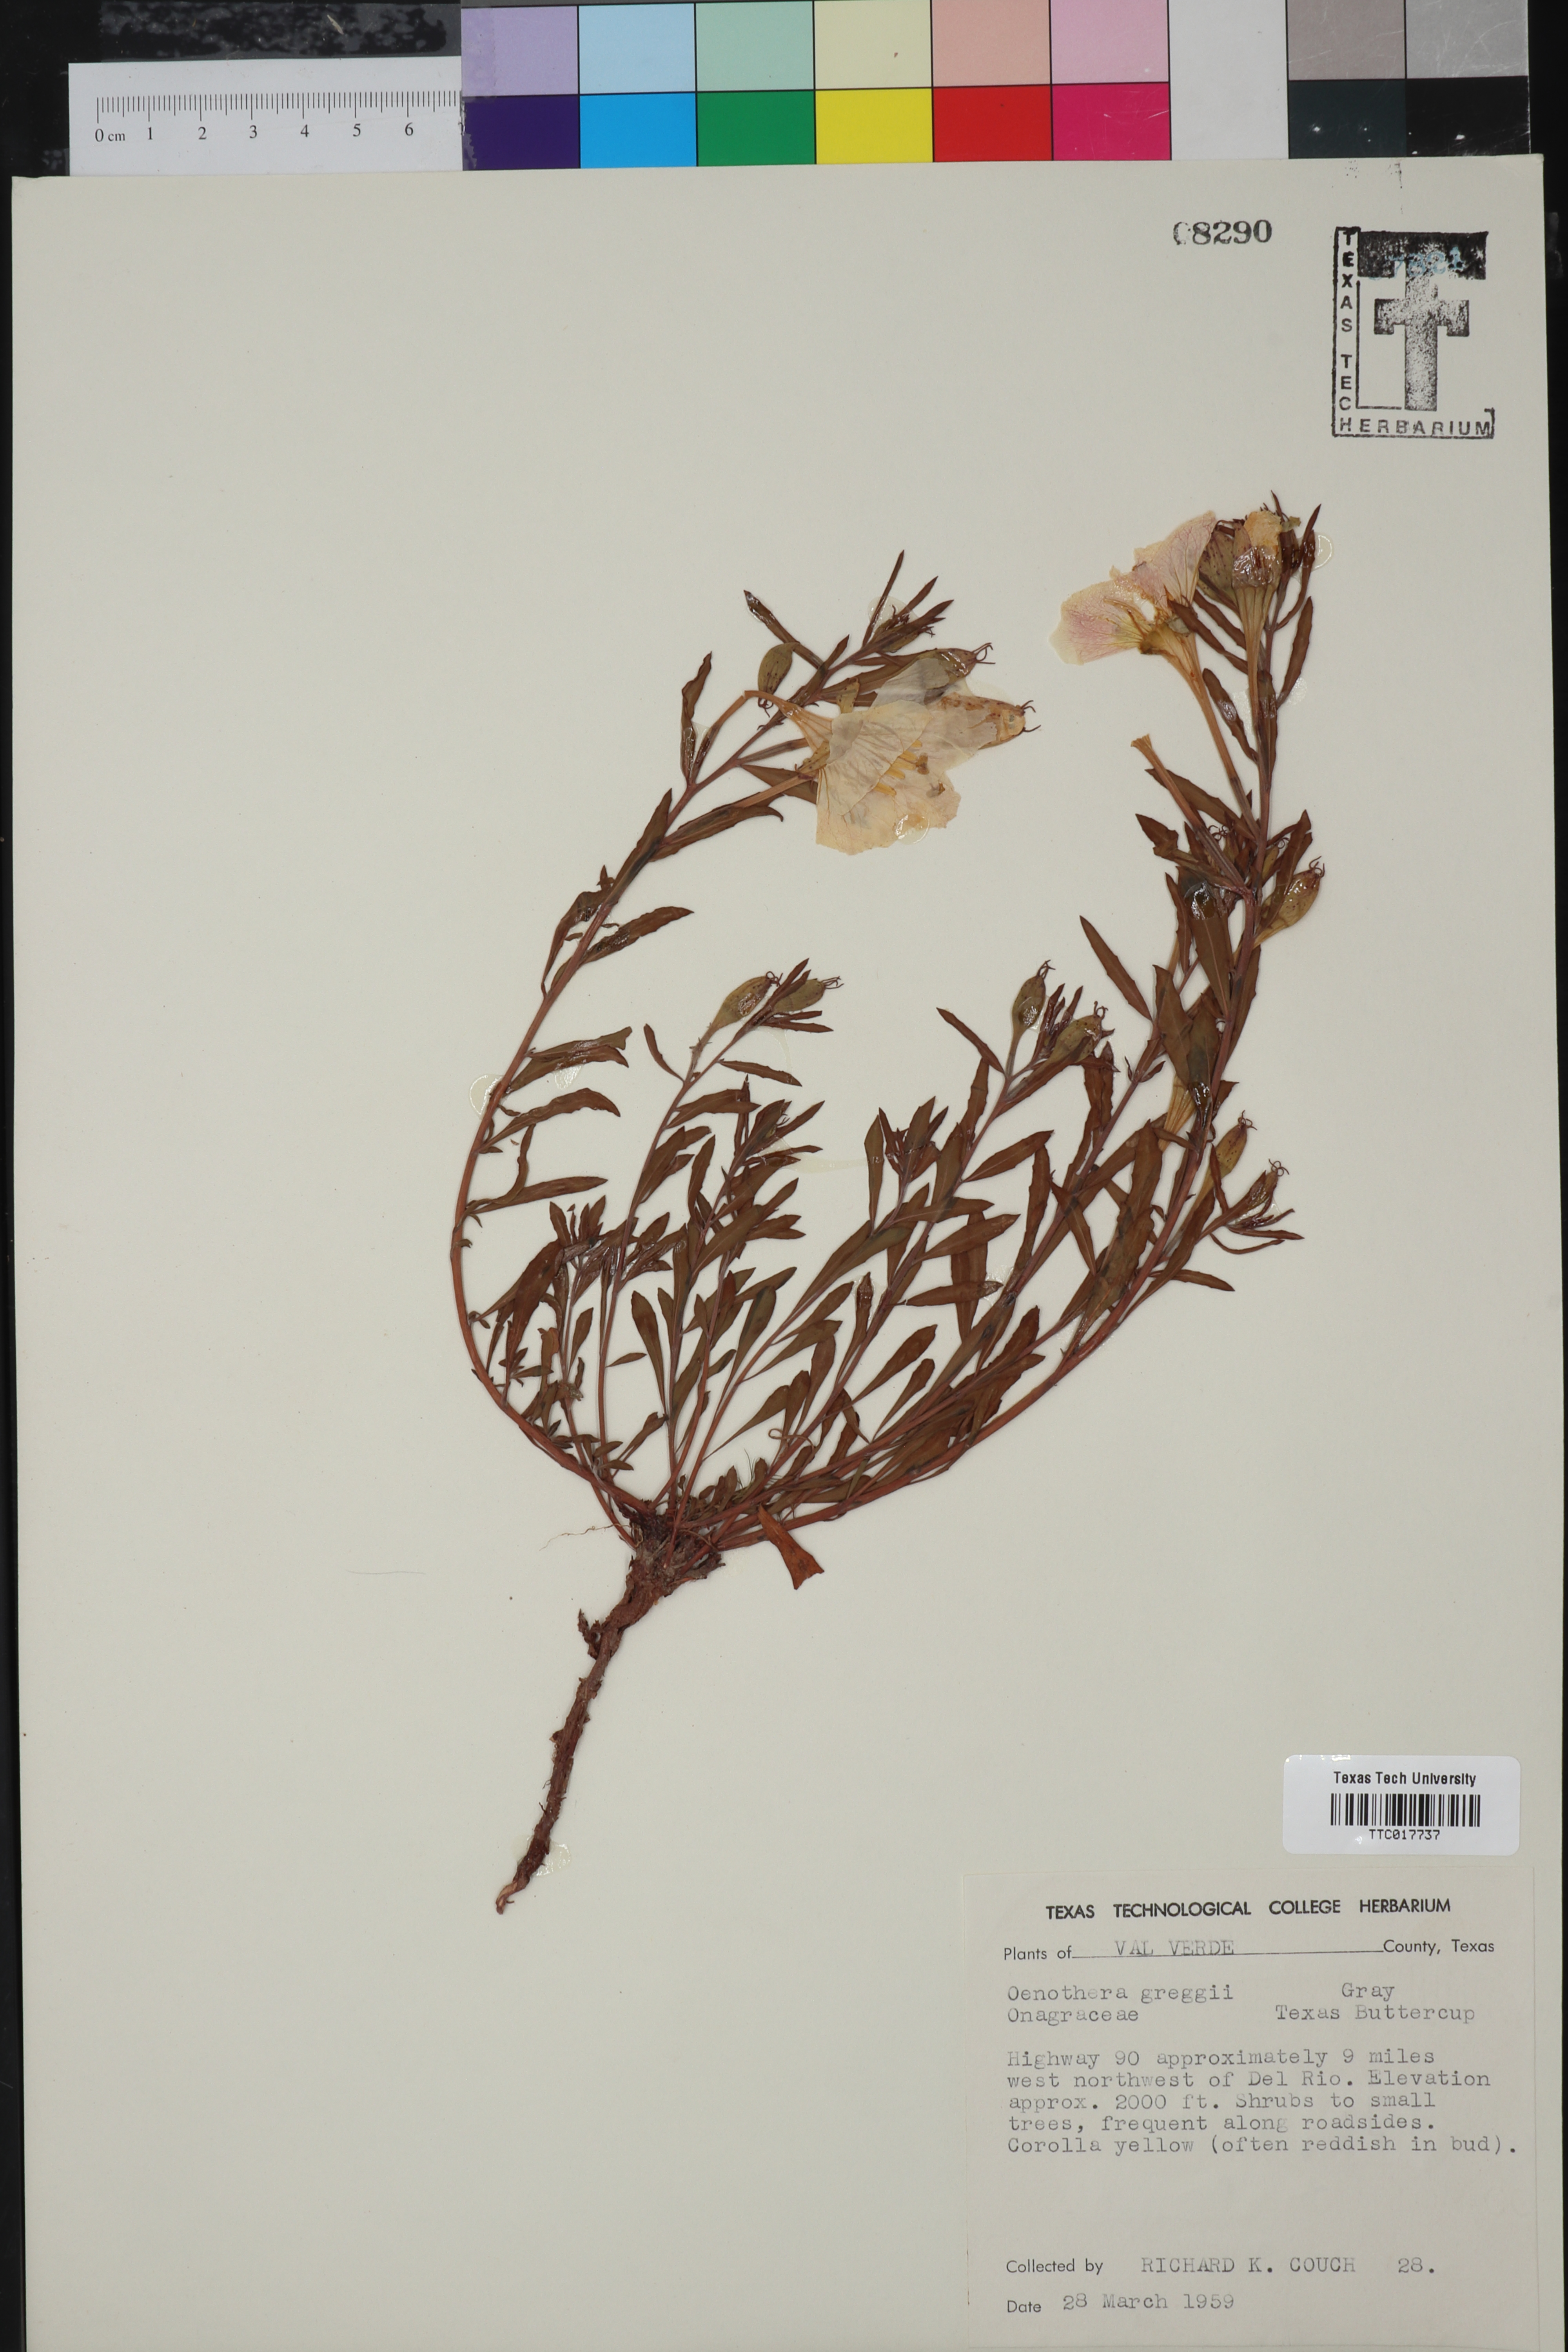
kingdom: Plantae
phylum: Tracheophyta
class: Magnoliopsida
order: Myrtales
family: Onagraceae
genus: Oenothera
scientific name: Oenothera hartwegii
